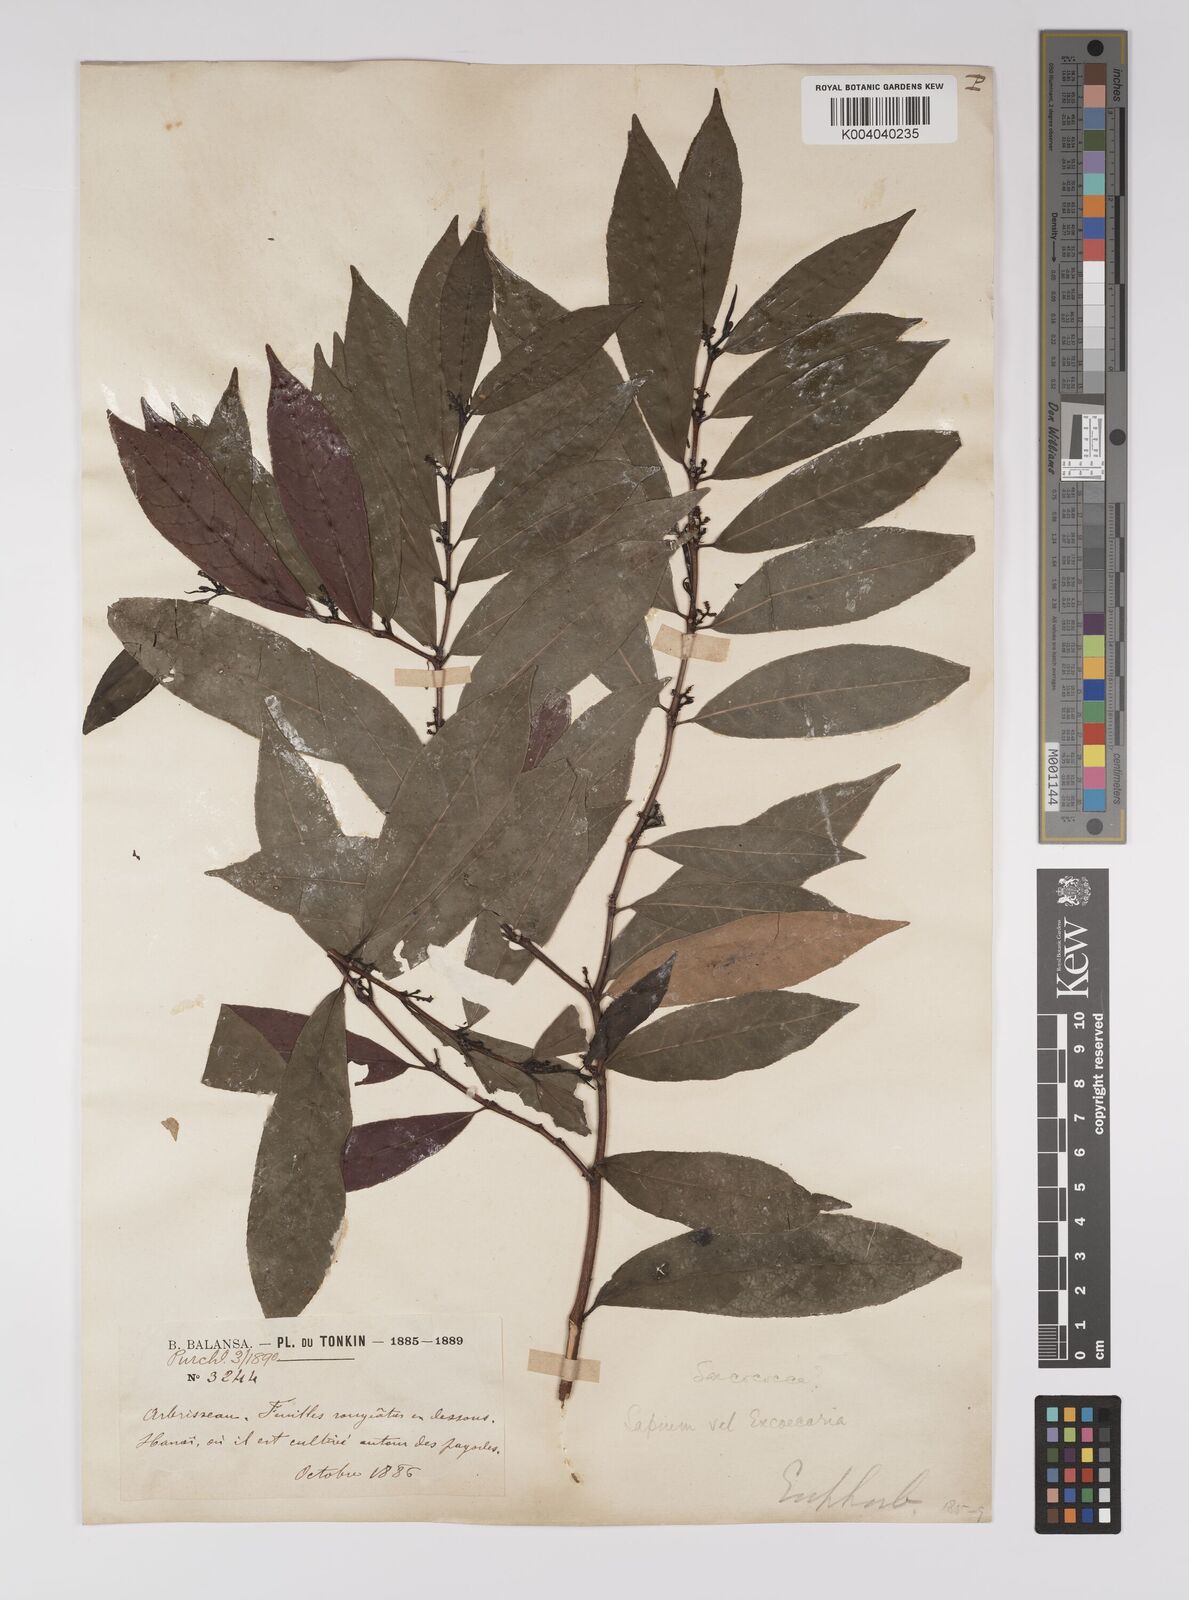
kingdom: Plantae
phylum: Tracheophyta
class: Magnoliopsida
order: Malpighiales
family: Euphorbiaceae
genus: Excoecaria
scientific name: Excoecaria cochinchinensis
